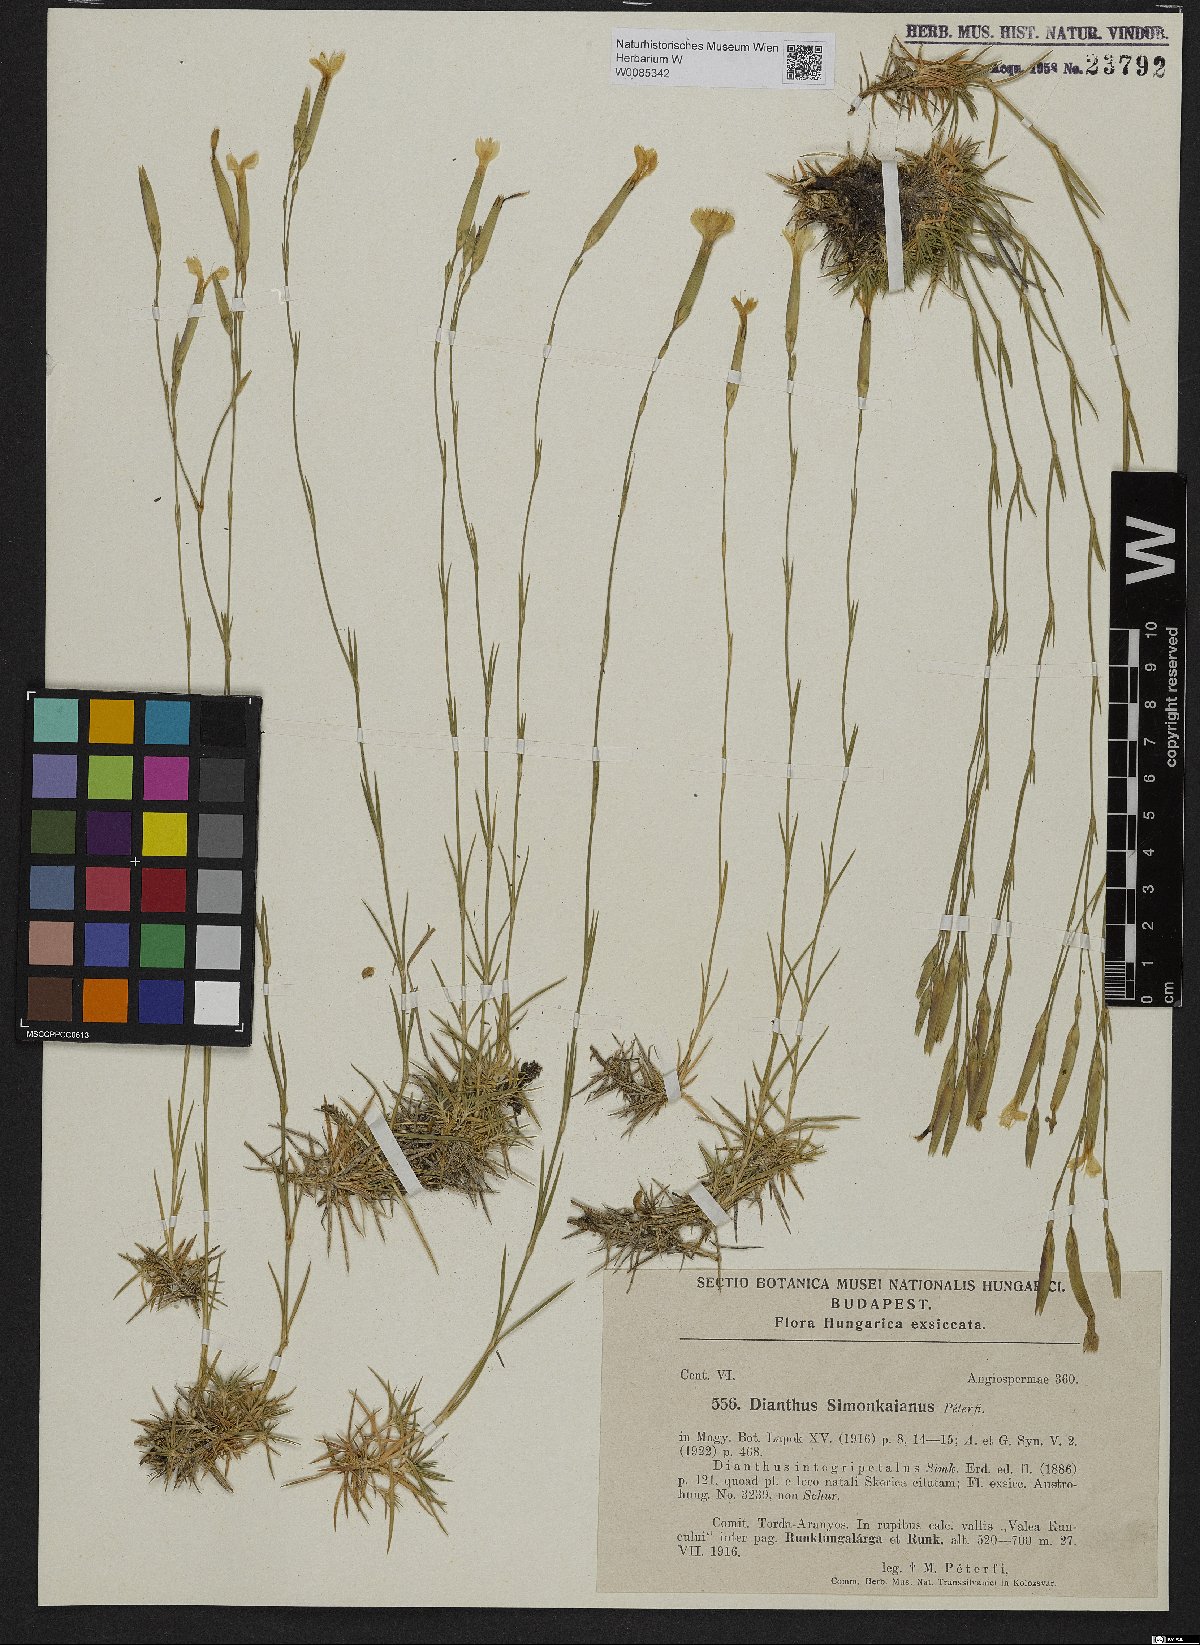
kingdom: Plantae
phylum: Tracheophyta
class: Magnoliopsida
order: Caryophyllales
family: Caryophyllaceae
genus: Dianthus
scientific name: Dianthus petraeus
